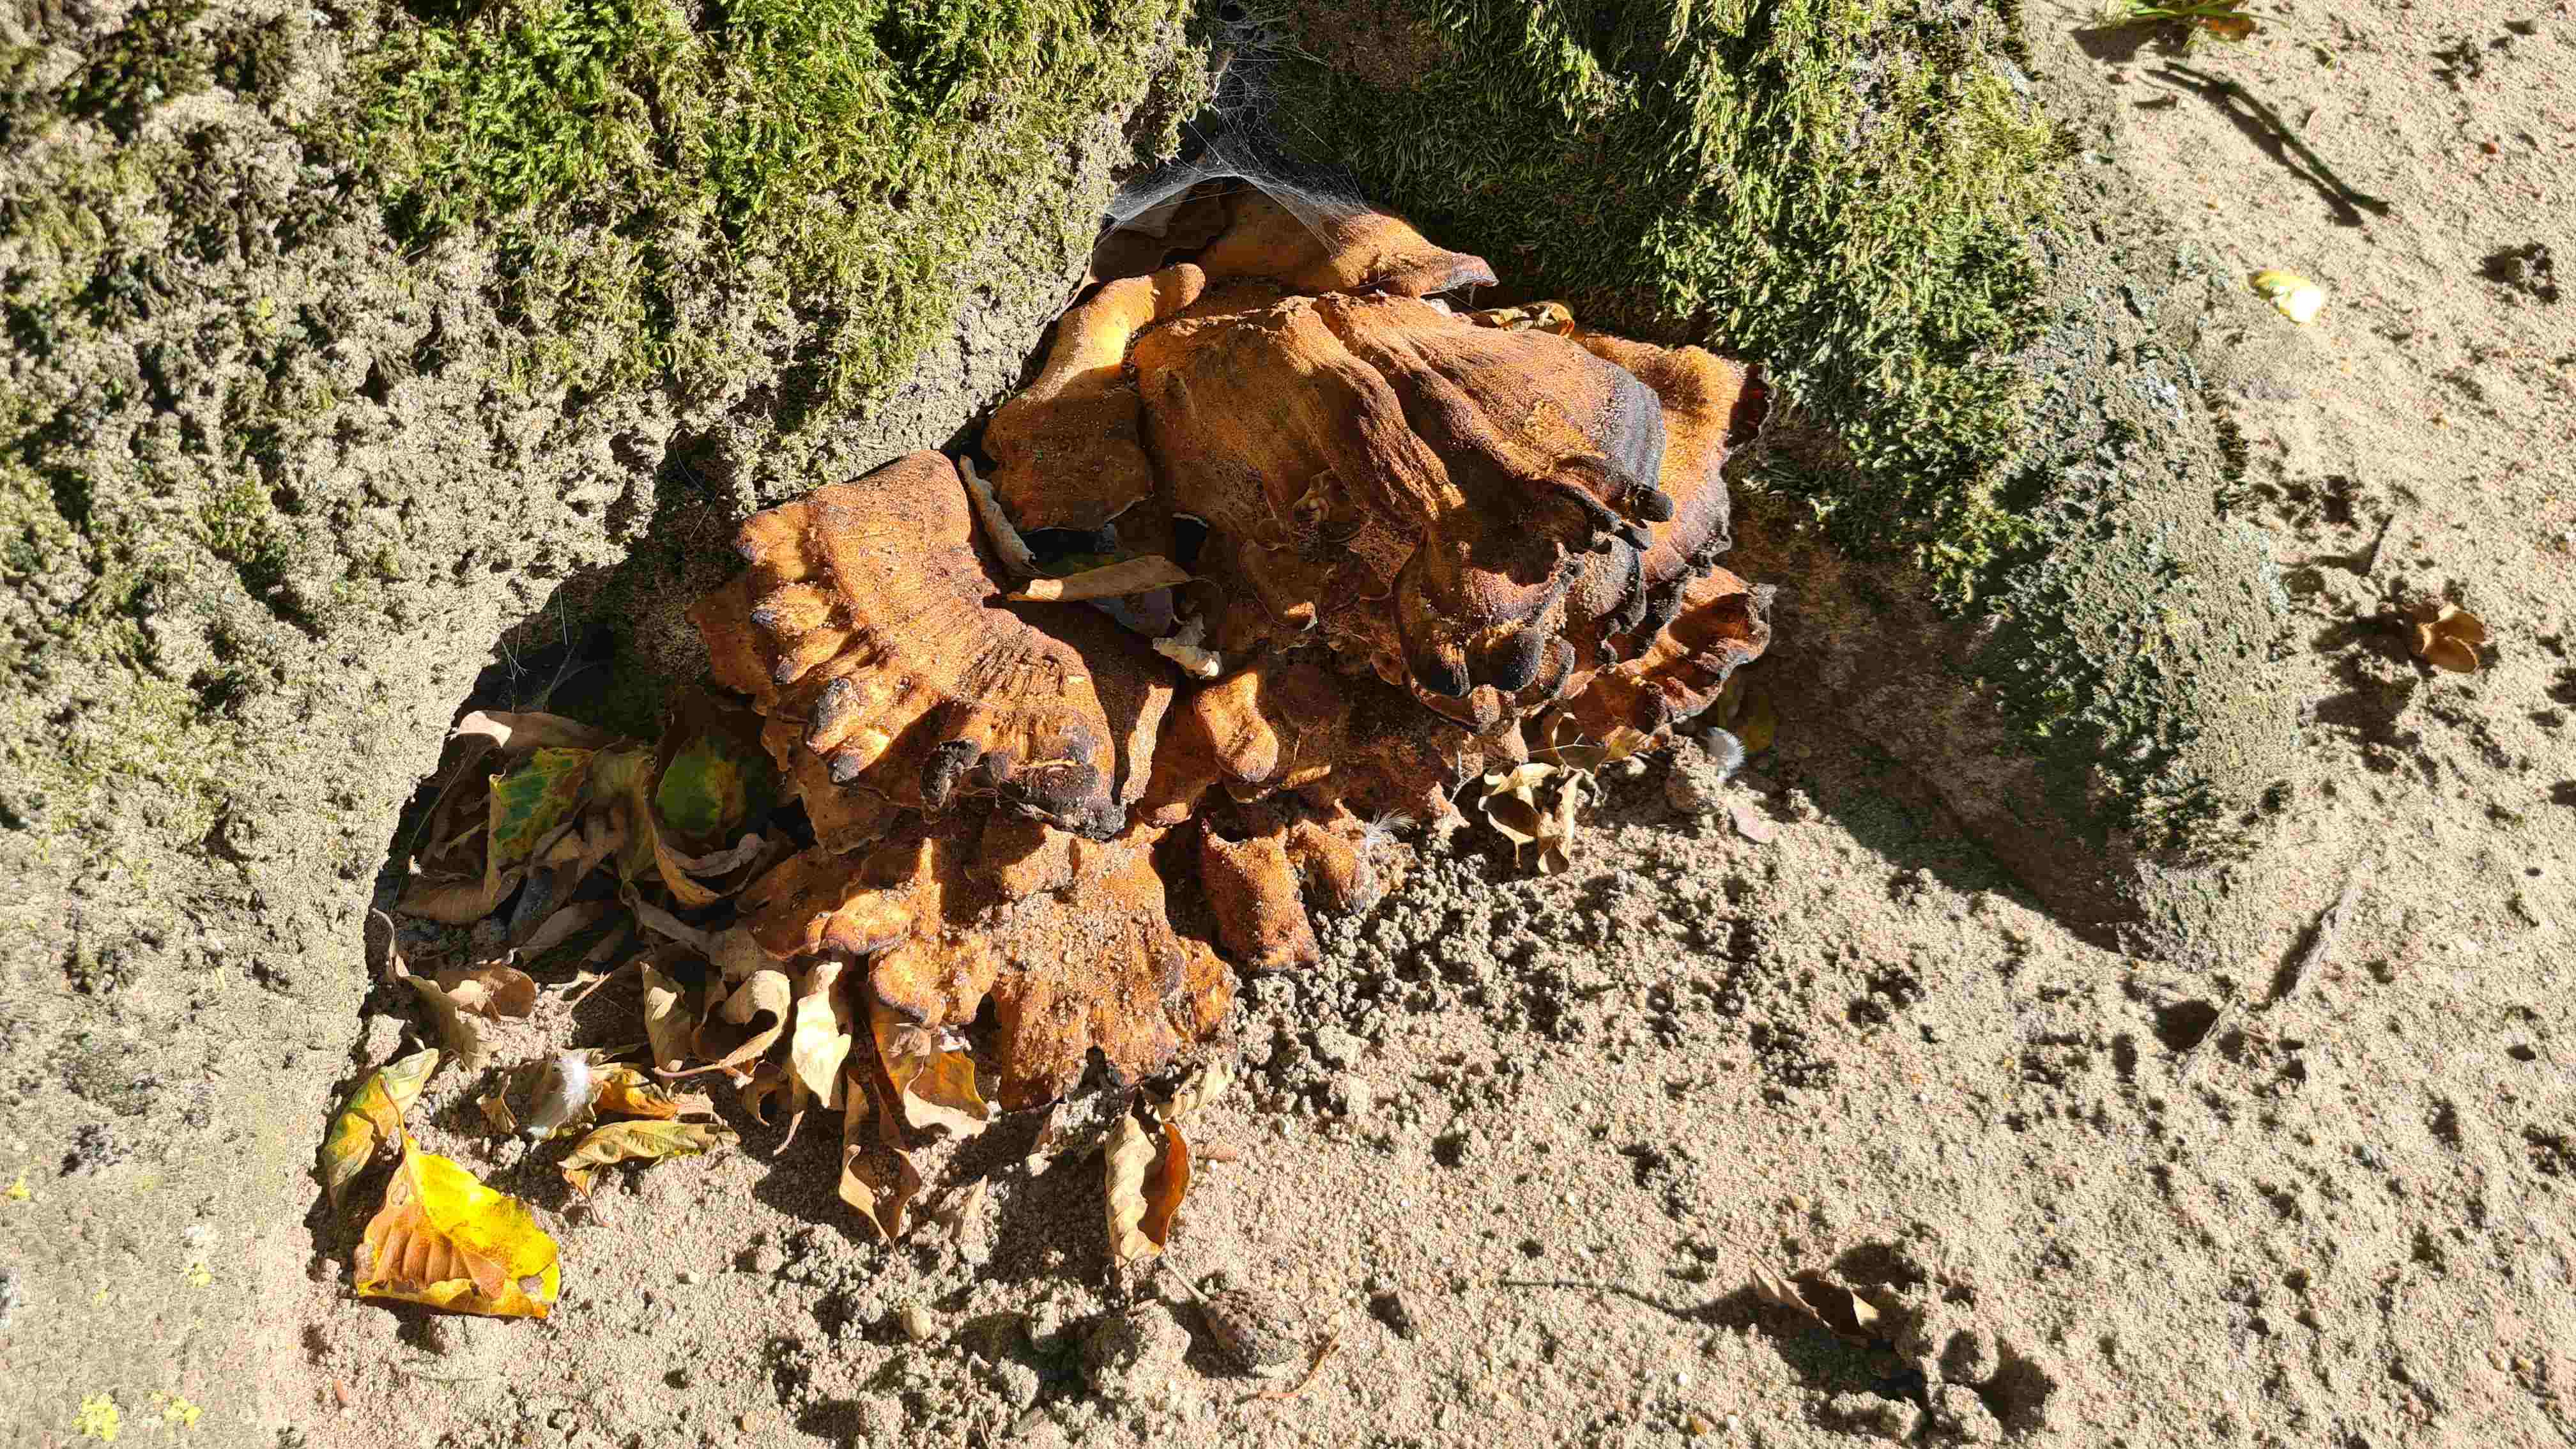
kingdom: Fungi
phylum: Basidiomycota
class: Agaricomycetes
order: Polyporales
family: Meripilaceae
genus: Meripilus
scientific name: Meripilus giganteus
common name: kæmpeporesvamp
